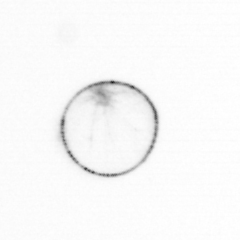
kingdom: Chromista
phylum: Myzozoa
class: Dinophyceae
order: Noctilucales
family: Noctilucaceae
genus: Noctiluca
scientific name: Noctiluca scintillans
